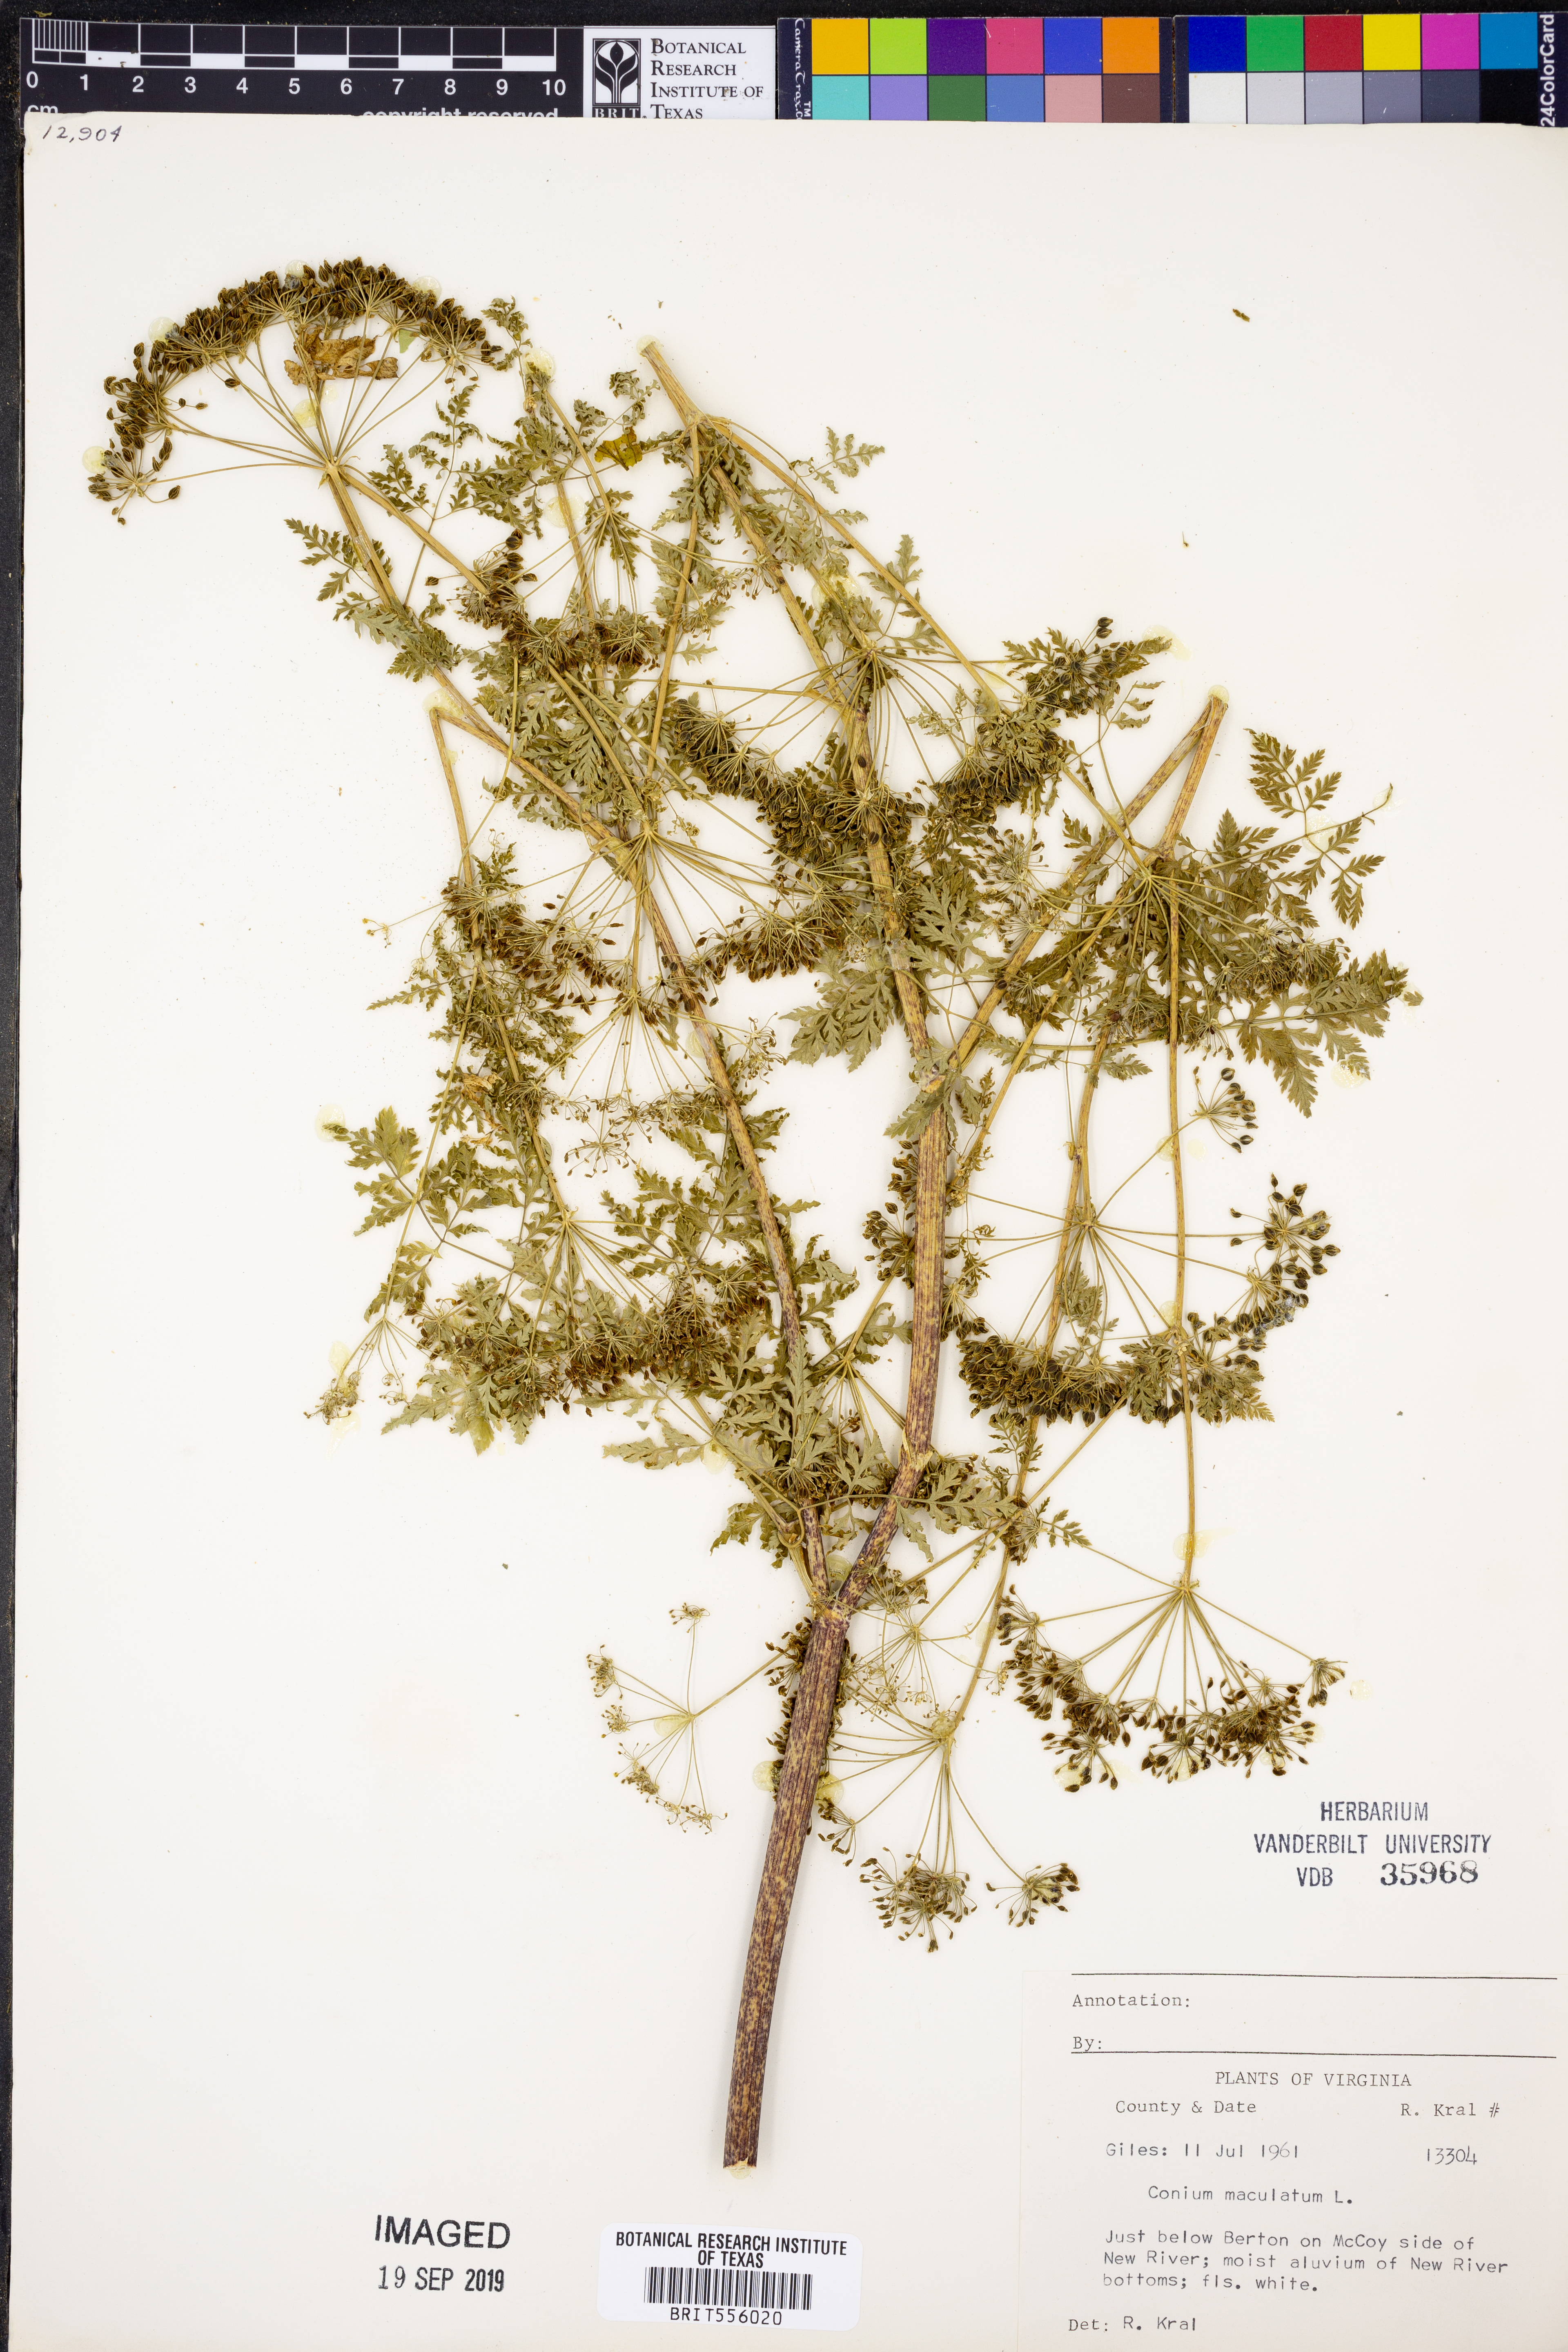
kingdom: Plantae
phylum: Tracheophyta
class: Magnoliopsida
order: Apiales
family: Apiaceae
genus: Conium
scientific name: Conium maculatum
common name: Hemlock
